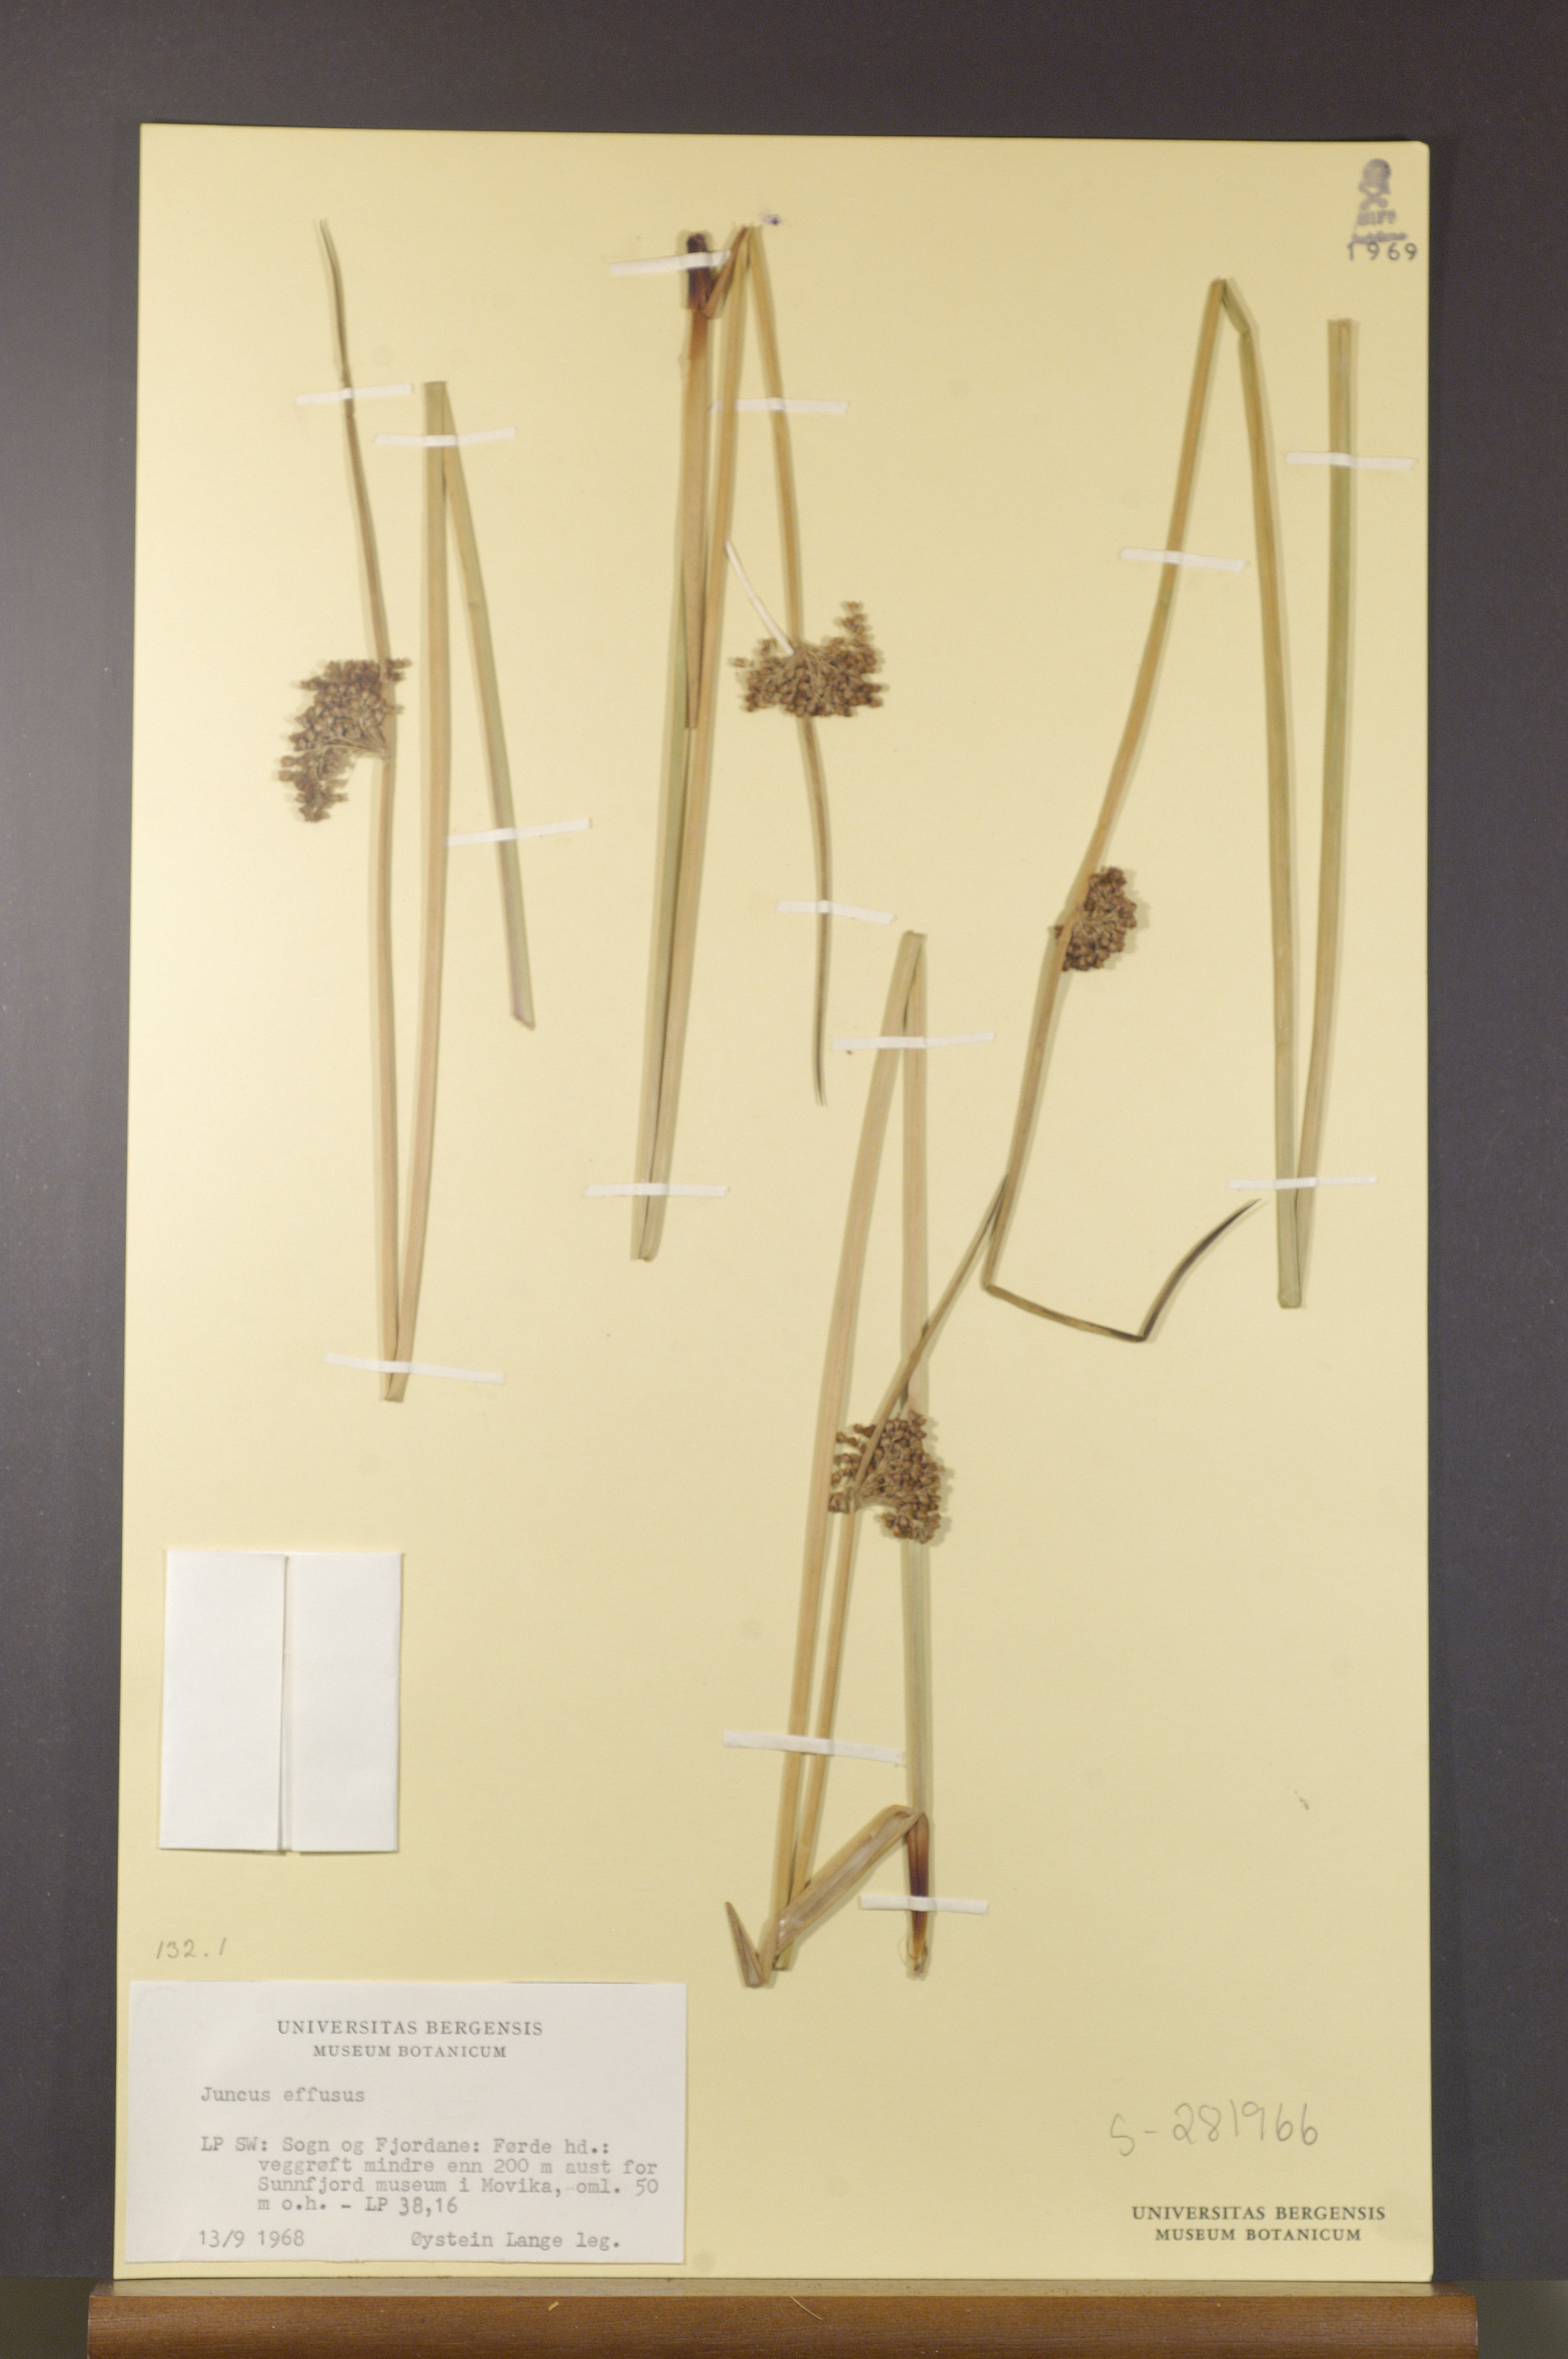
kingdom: Plantae
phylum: Tracheophyta
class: Liliopsida
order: Poales
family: Juncaceae
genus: Juncus
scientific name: Juncus effusus
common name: Soft rush
